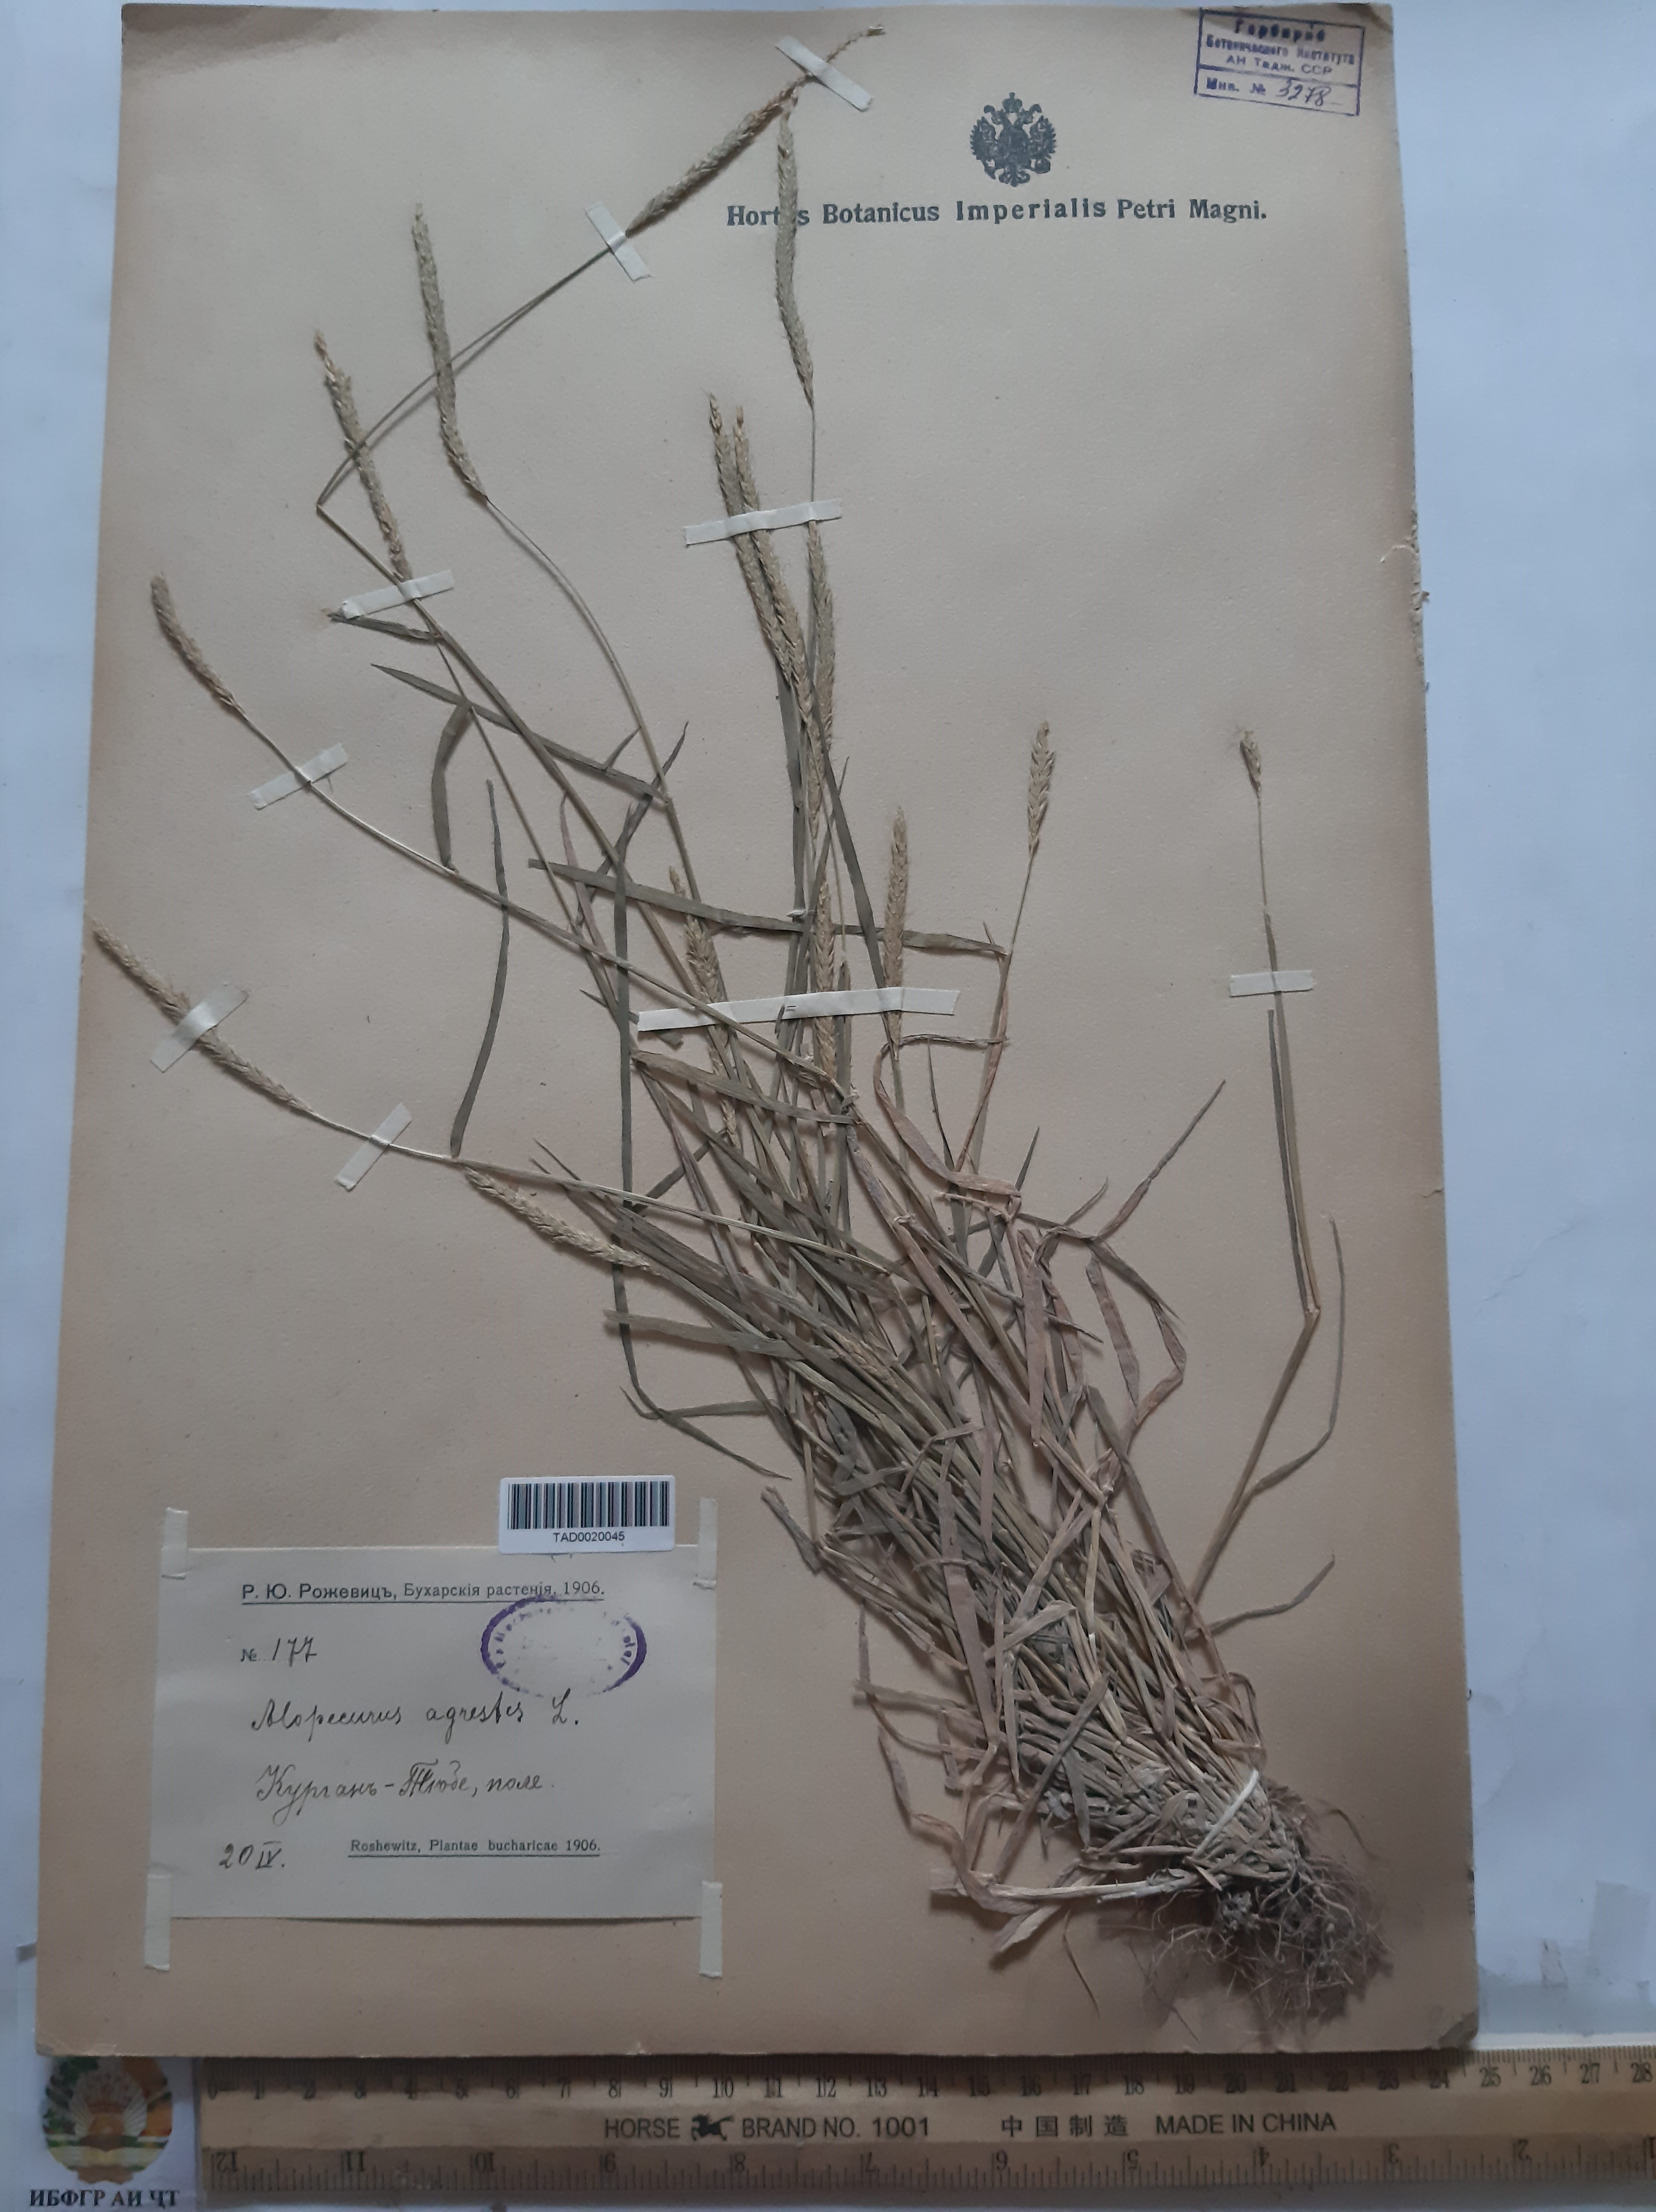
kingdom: Plantae
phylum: Tracheophyta
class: Liliopsida
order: Poales
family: Poaceae
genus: Alopecurus
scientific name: Alopecurus myosuroides
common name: Black-grass
